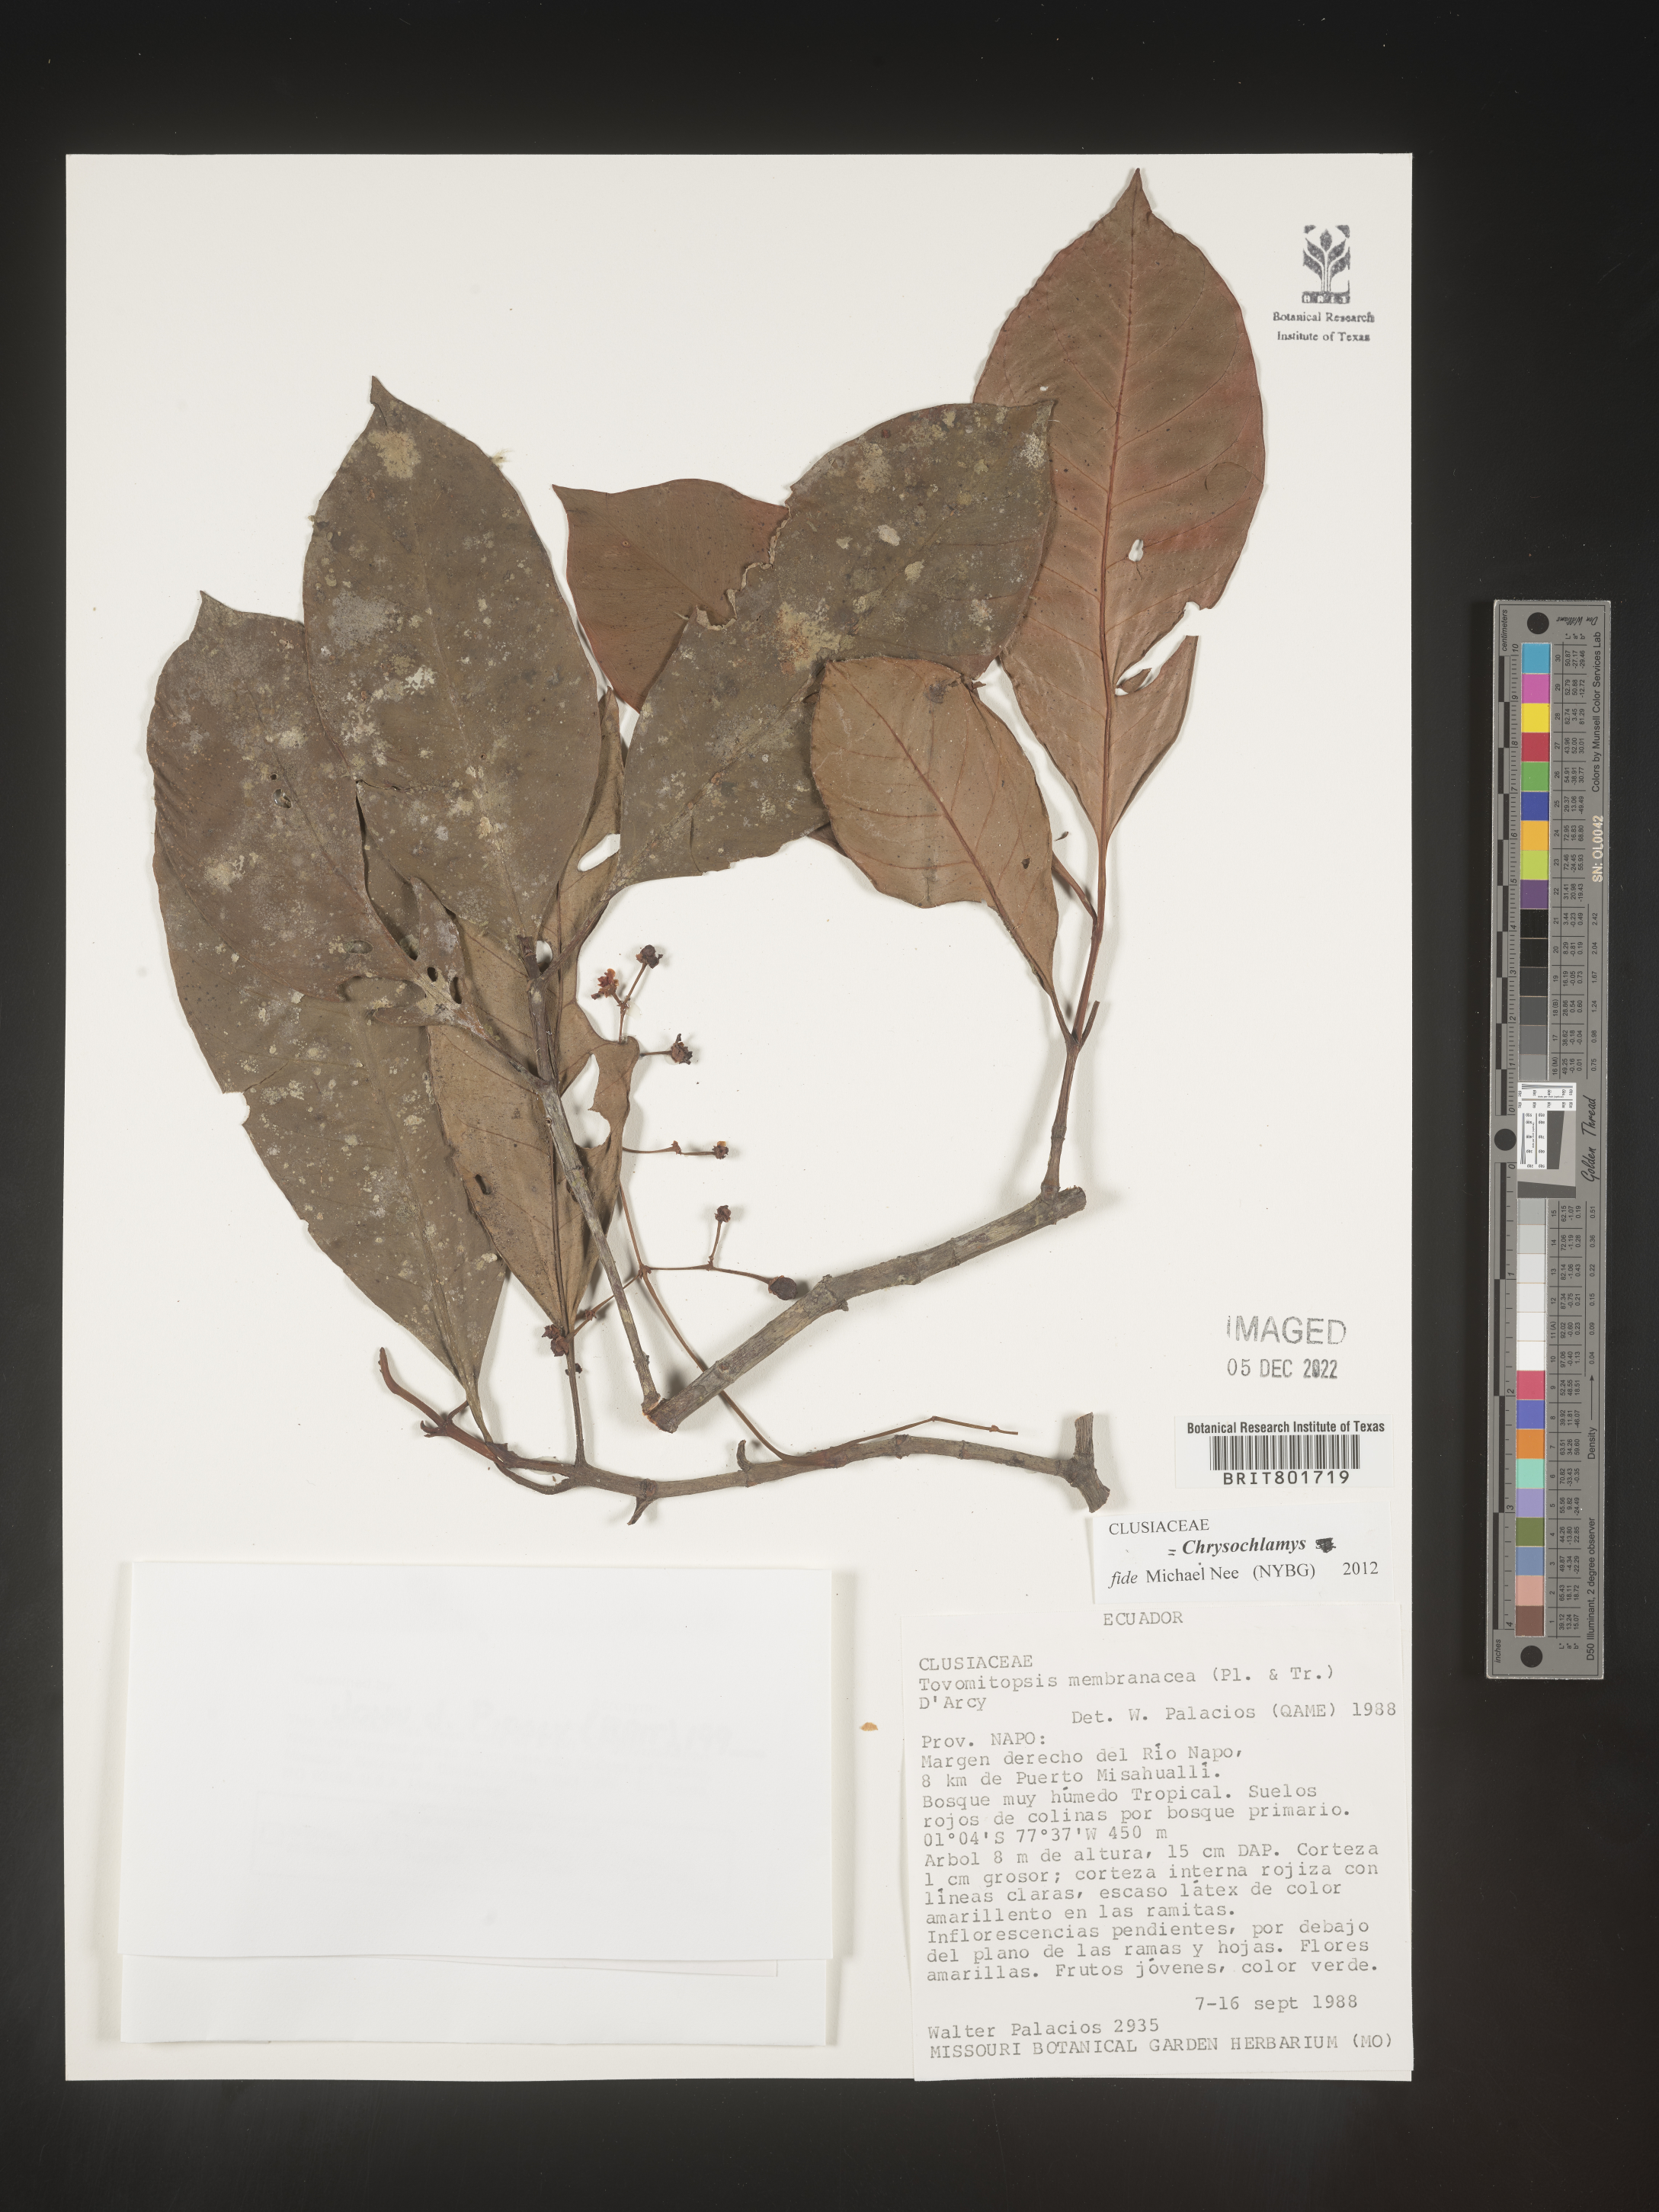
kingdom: Plantae
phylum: Tracheophyta
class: Magnoliopsida
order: Malpighiales
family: Clusiaceae
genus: Chrysochlamys
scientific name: Chrysochlamys membranacea
